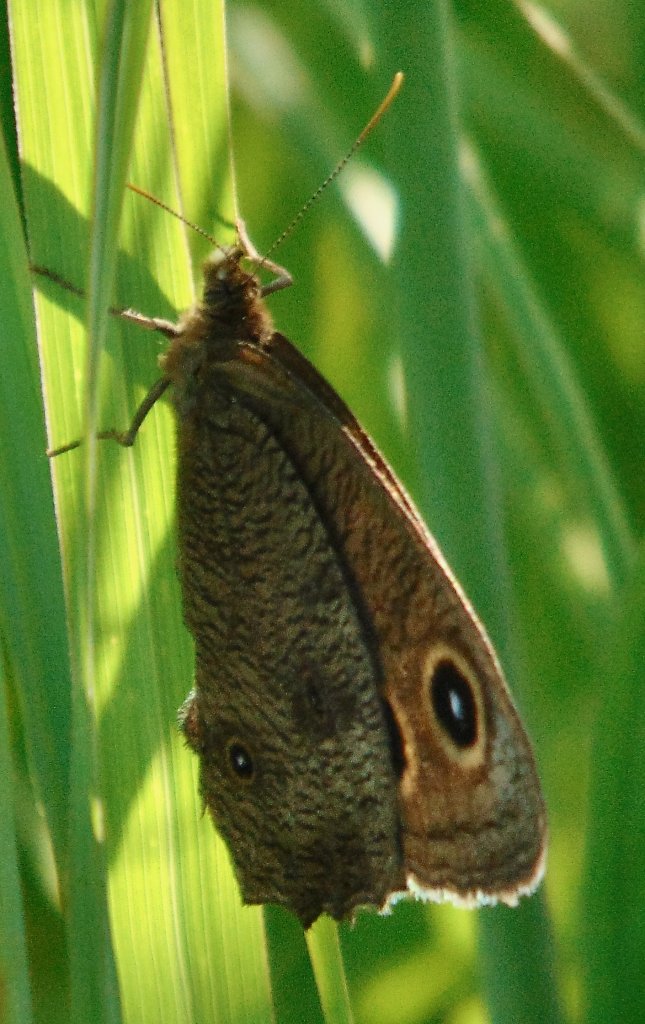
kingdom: Animalia
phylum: Arthropoda
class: Insecta
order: Lepidoptera
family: Nymphalidae
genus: Cercyonis
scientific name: Cercyonis pegala
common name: Common Wood-Nymph
